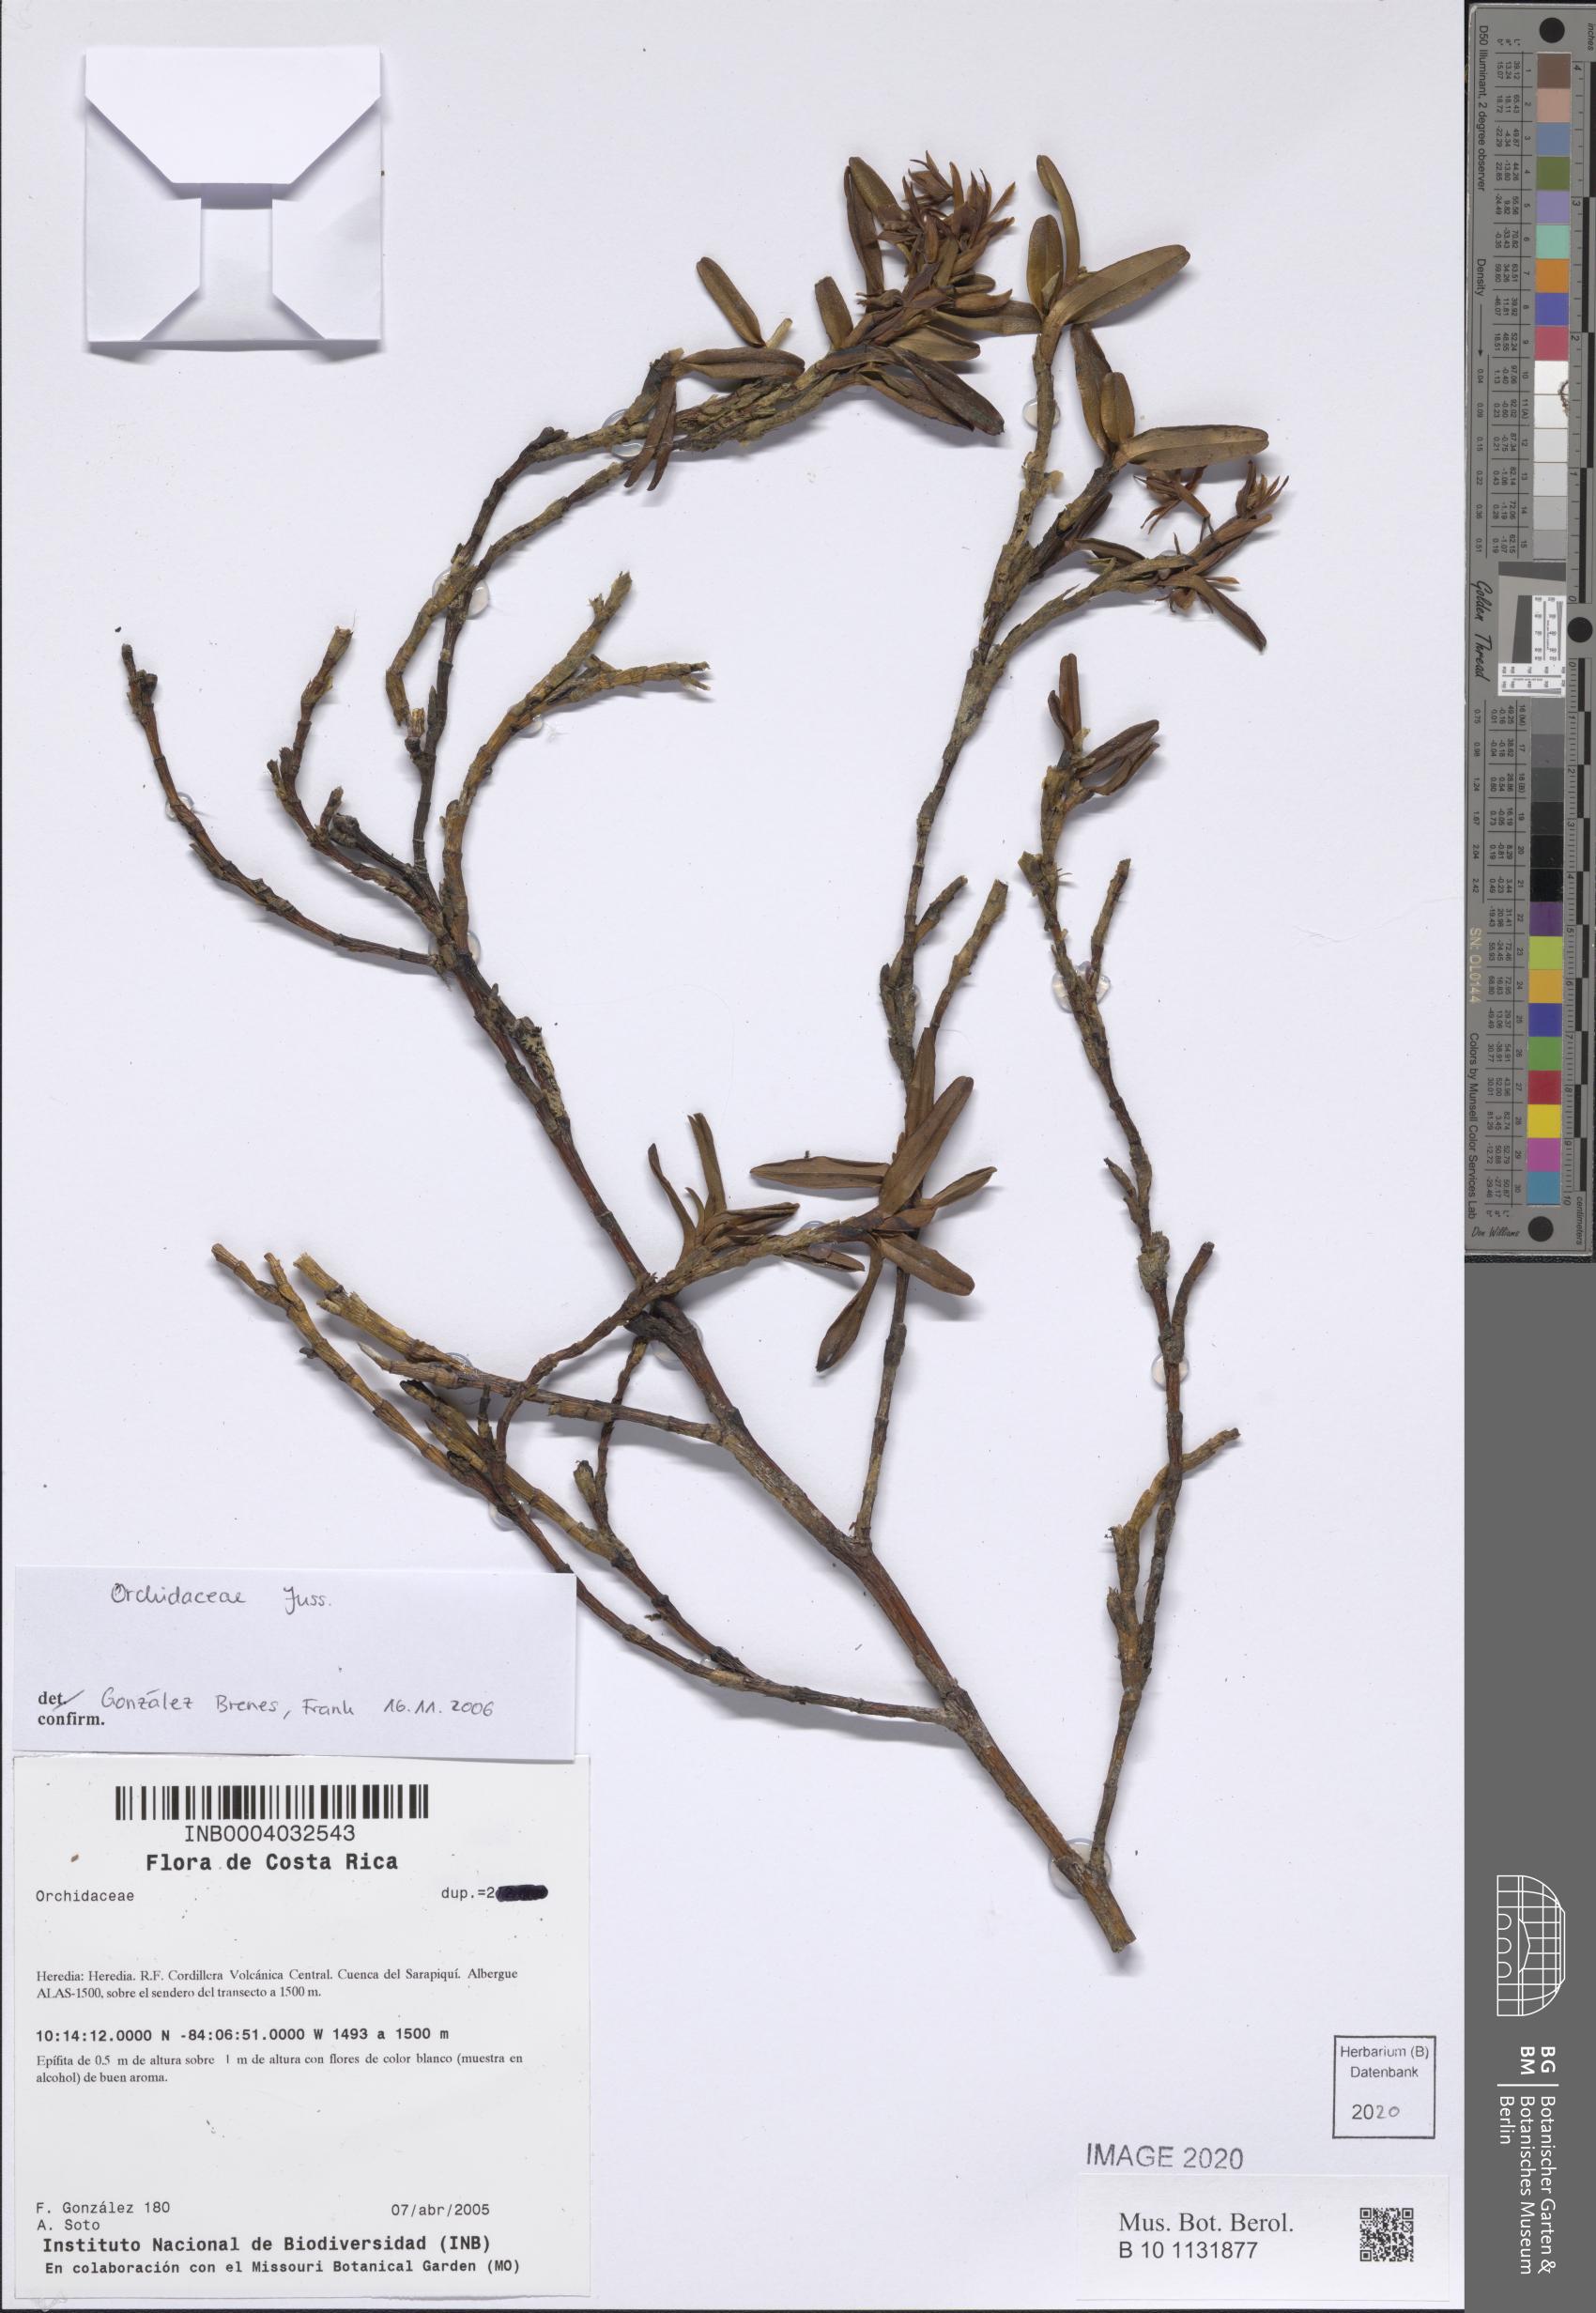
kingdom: Plantae
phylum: Tracheophyta
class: Liliopsida
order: Asparagales
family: Orchidaceae
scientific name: Orchidaceae
